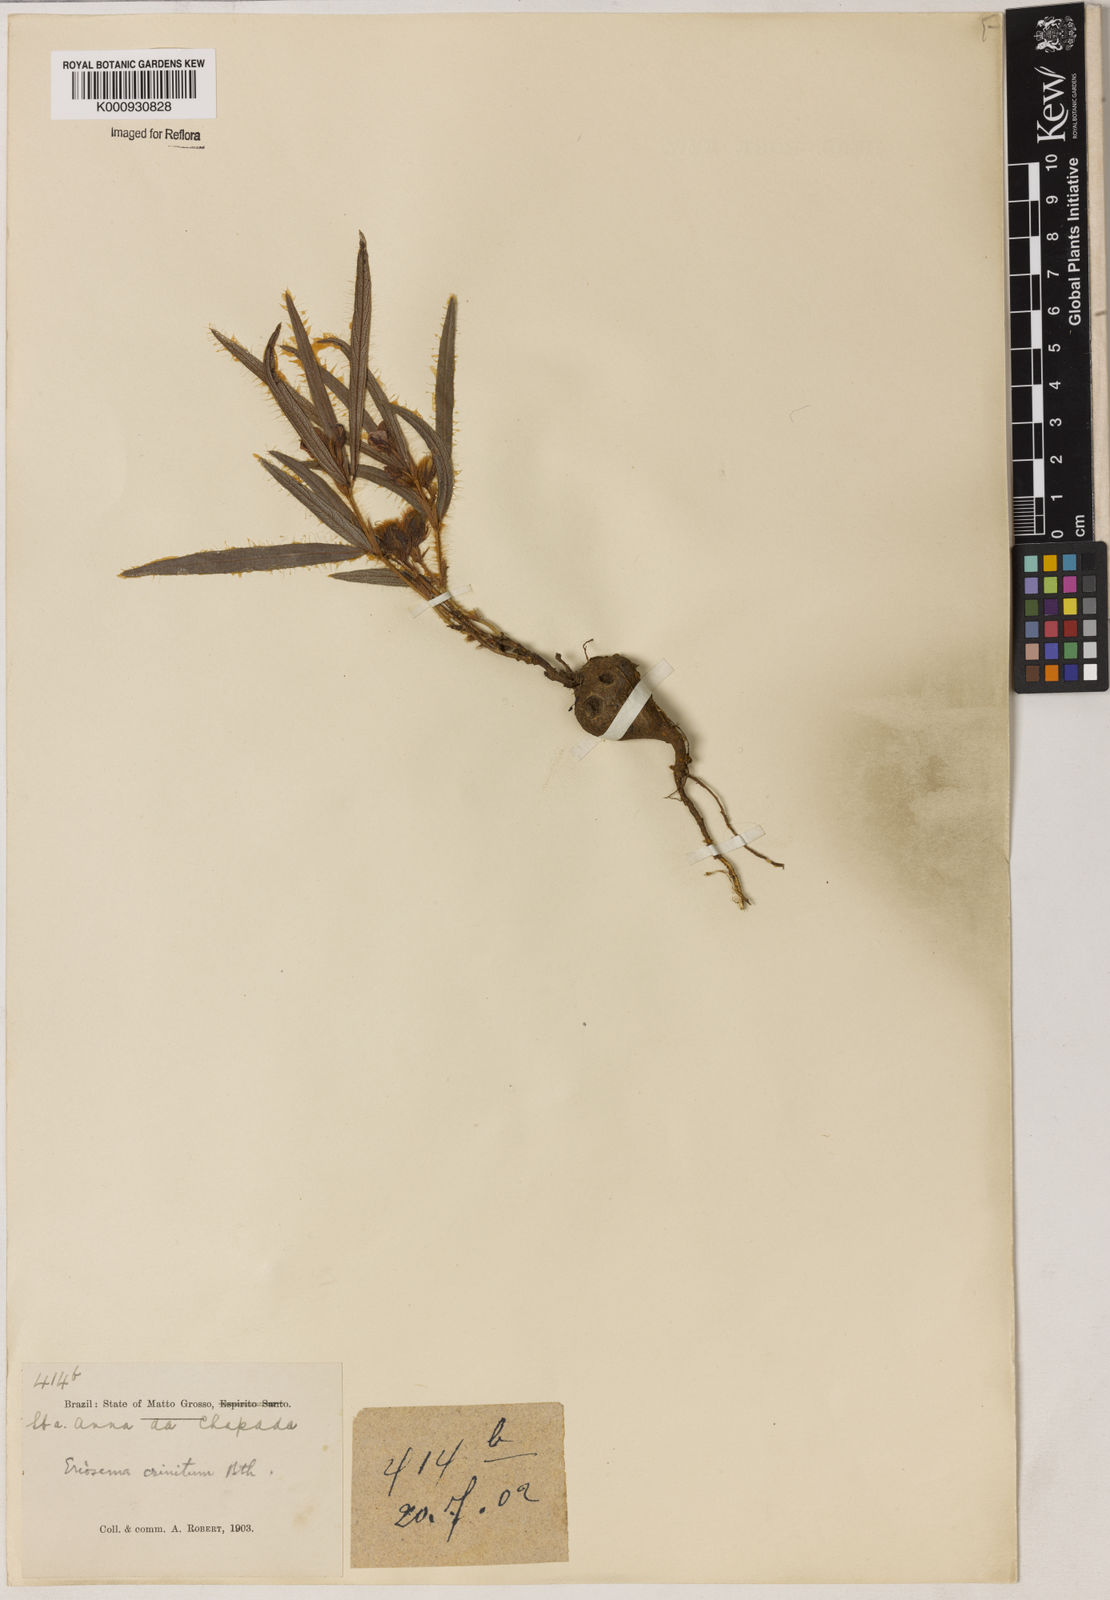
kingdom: Plantae
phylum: Tracheophyta
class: Magnoliopsida
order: Fabales
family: Fabaceae
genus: Eriosema
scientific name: Eriosema crinitum
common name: Sand pea
